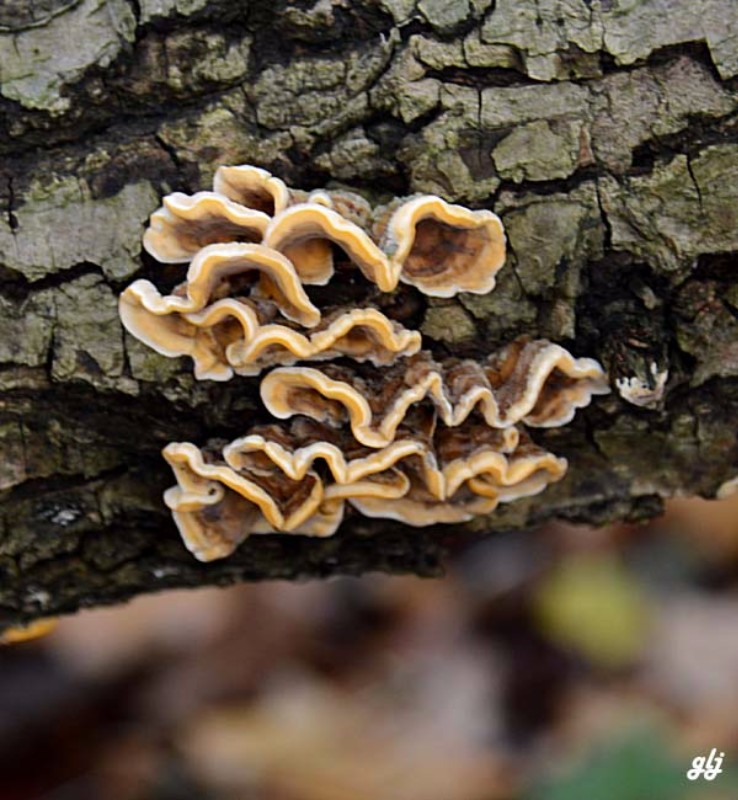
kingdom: Fungi
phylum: Basidiomycota
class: Agaricomycetes
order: Russulales
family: Stereaceae
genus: Stereum
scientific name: Stereum hirsutum
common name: håret lædersvamp
